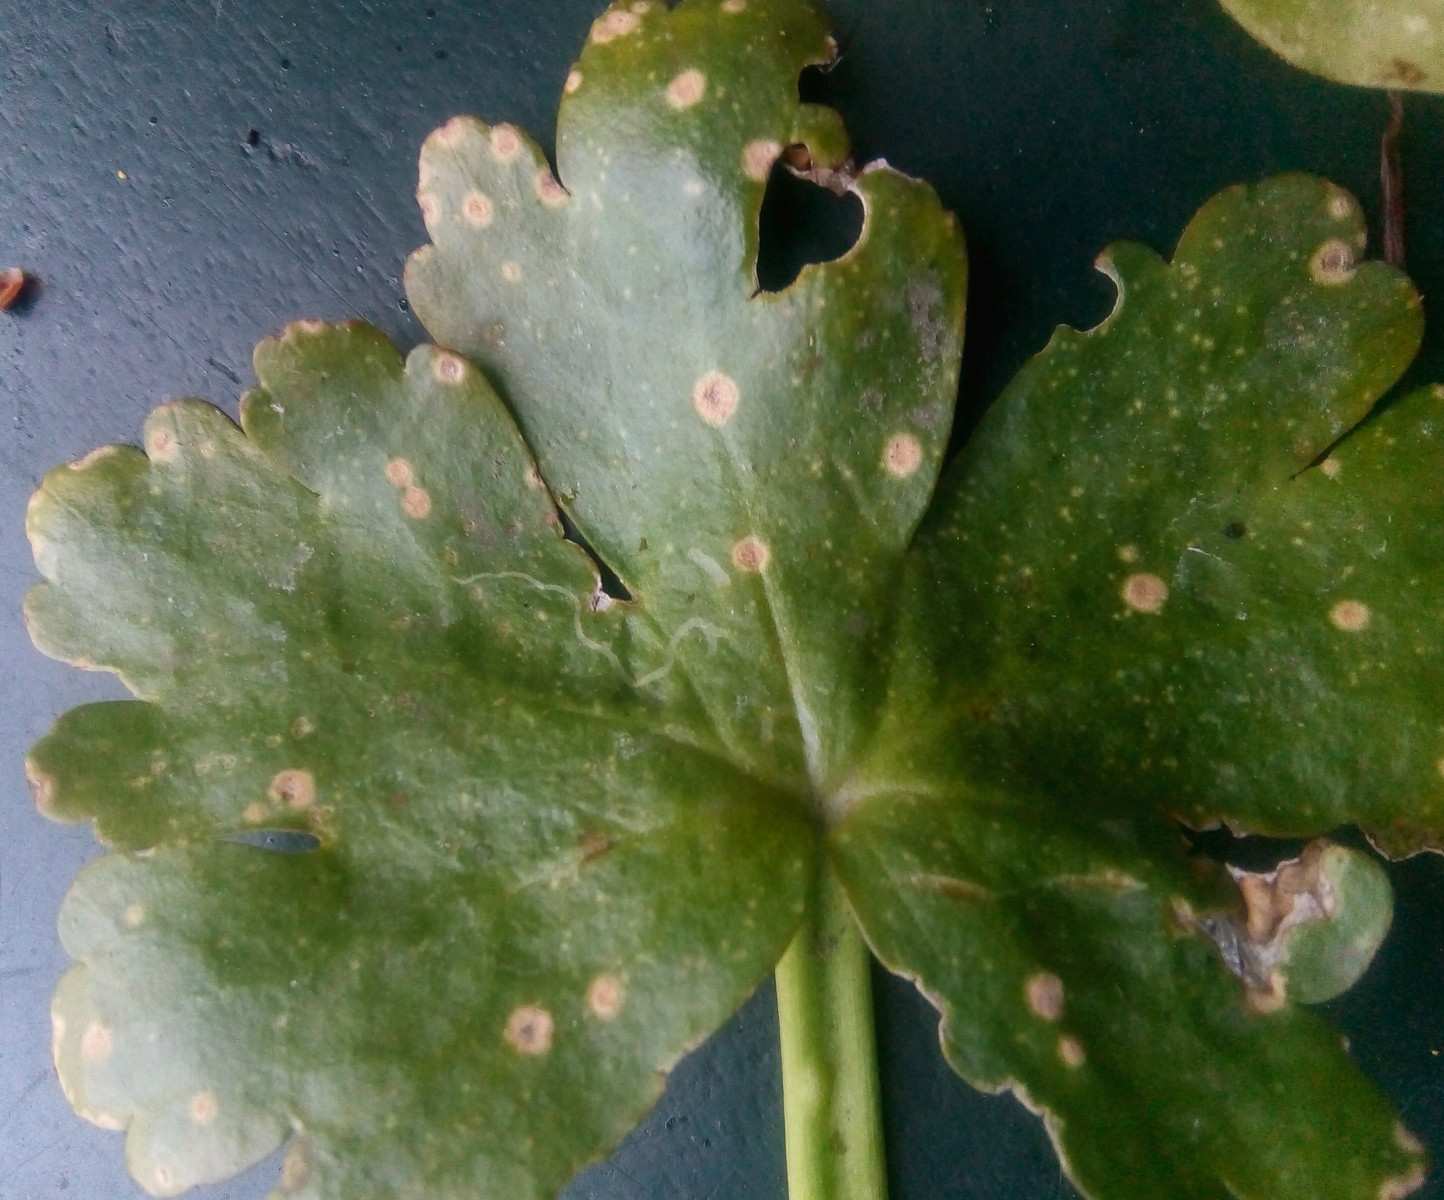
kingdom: Fungi
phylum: Basidiomycota
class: Exobasidiomycetes
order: Entylomatales
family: Entylomataceae
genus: Entyloma
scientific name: Entyloma ranunculi-scelerati
